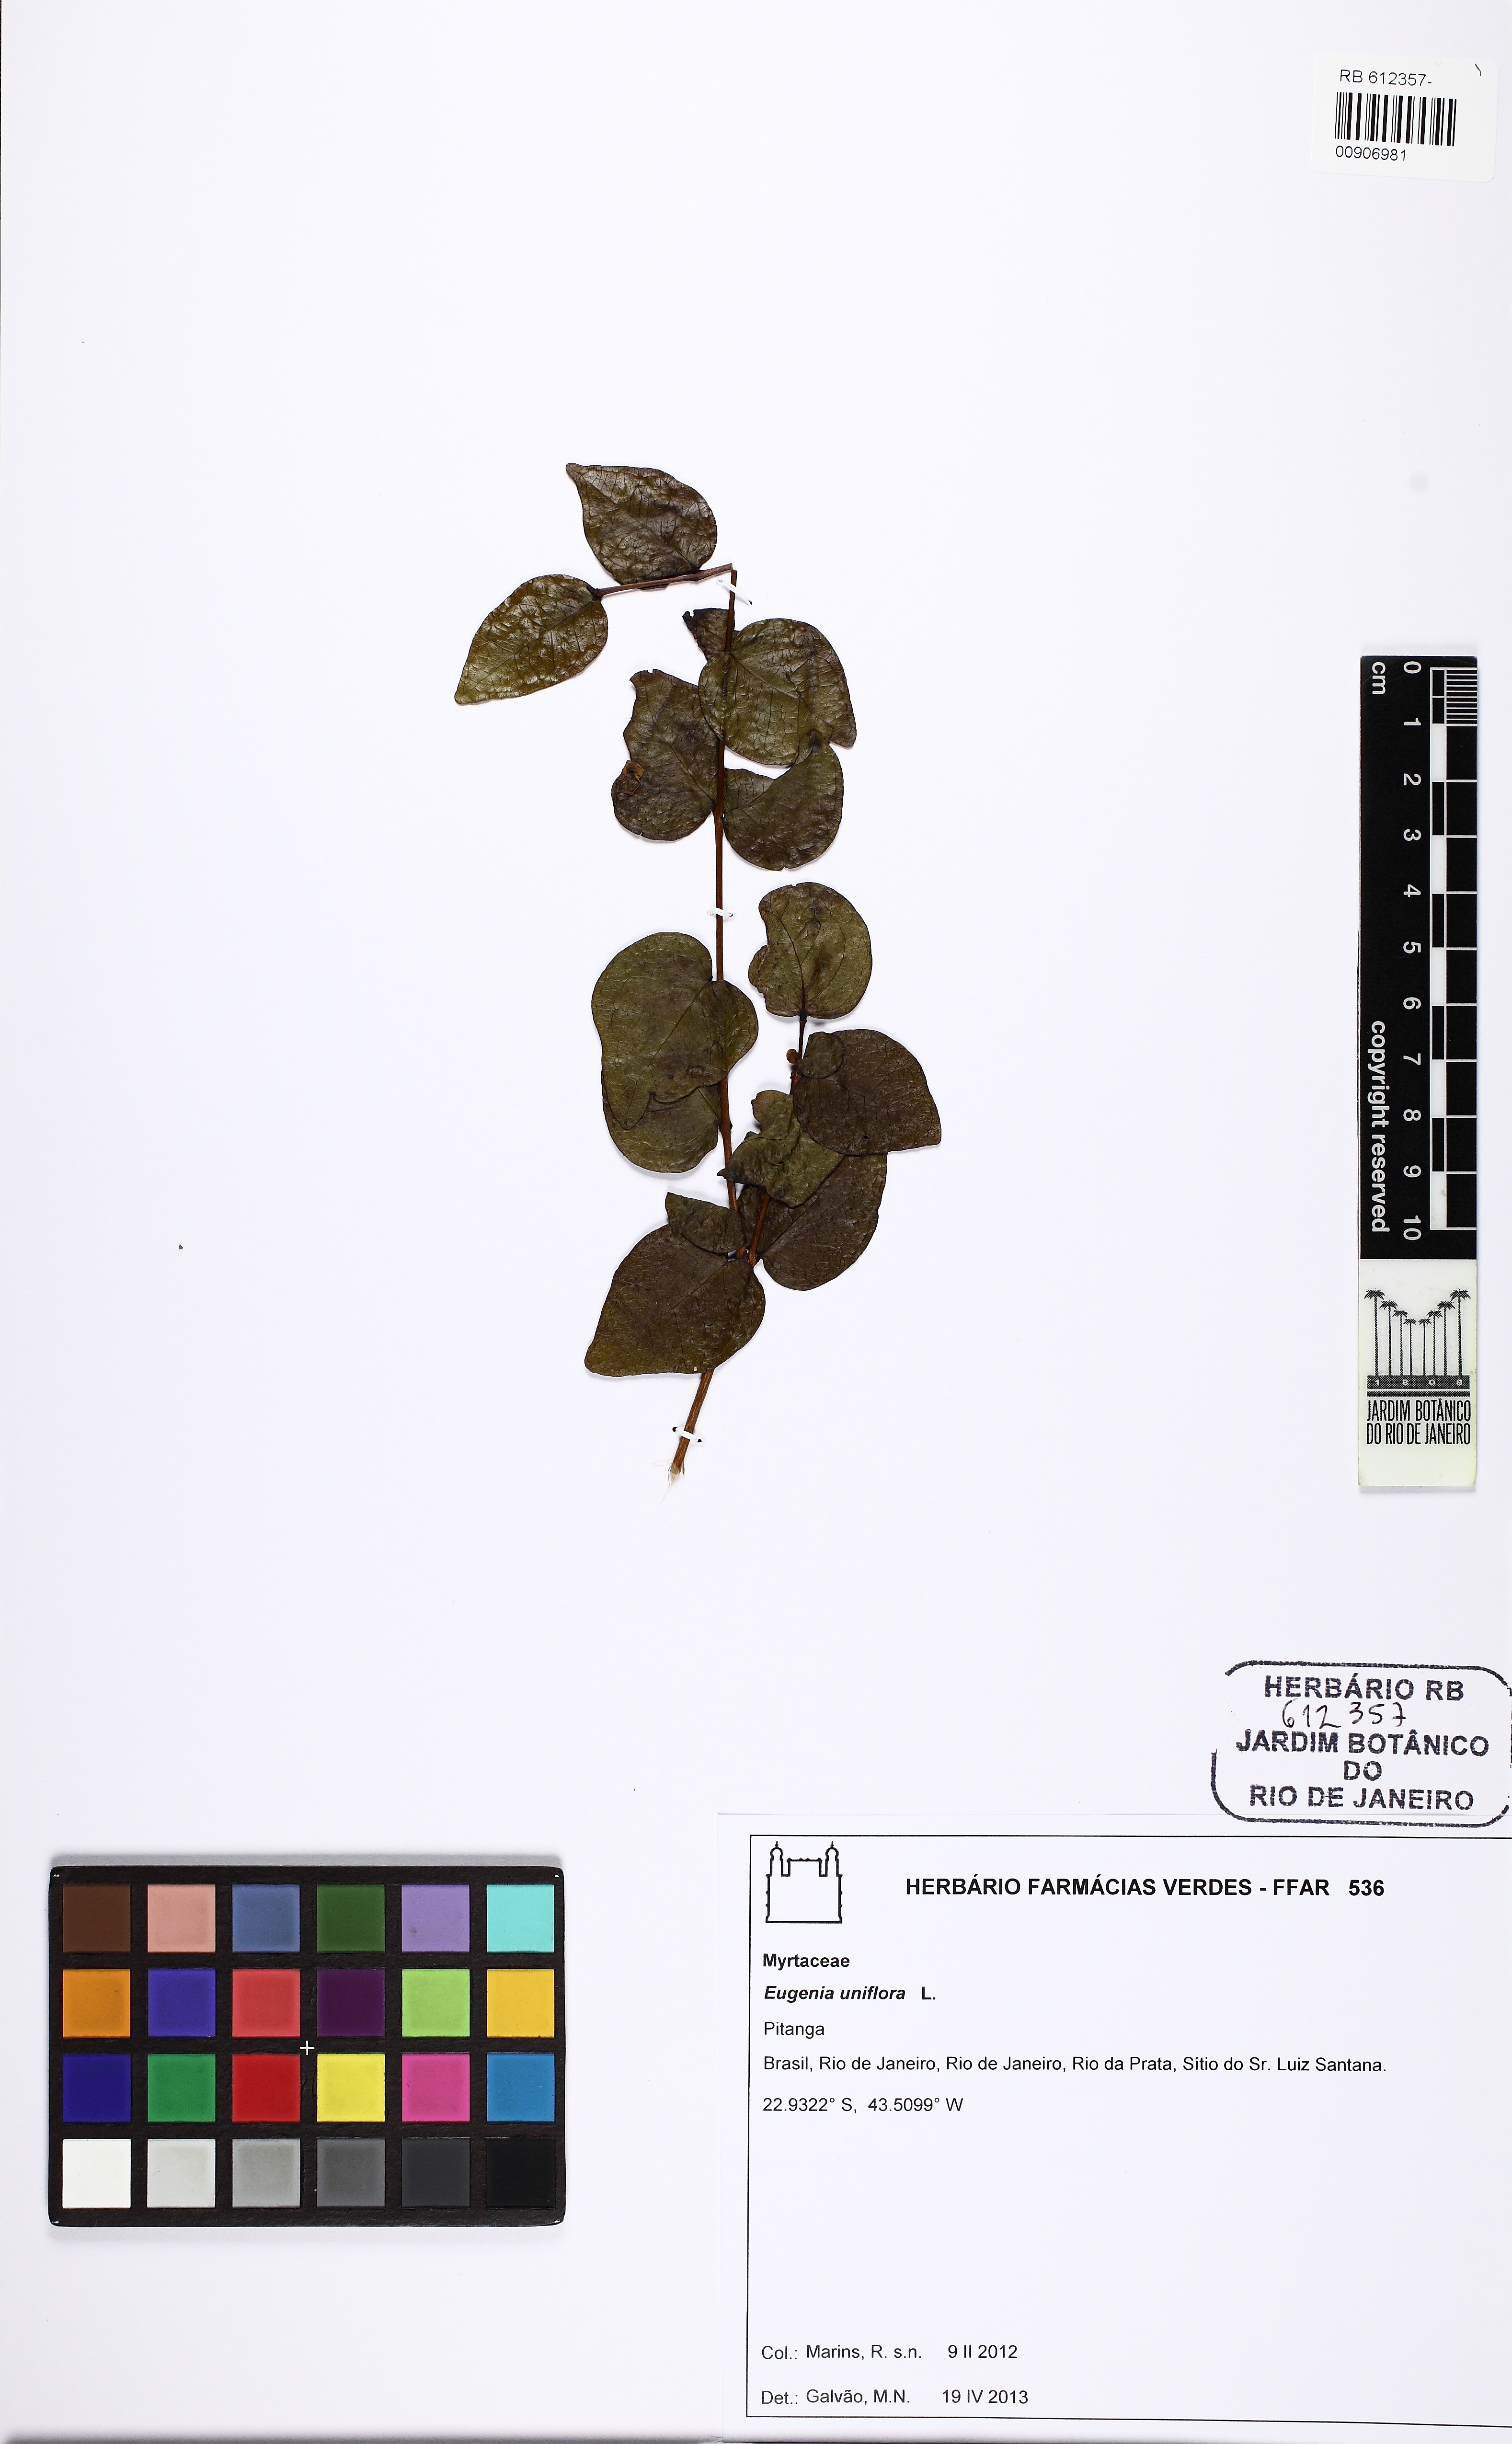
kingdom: Plantae
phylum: Tracheophyta
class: Magnoliopsida
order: Myrtales
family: Myrtaceae
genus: Eugenia
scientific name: Eugenia uniflora
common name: Surinam cherry
